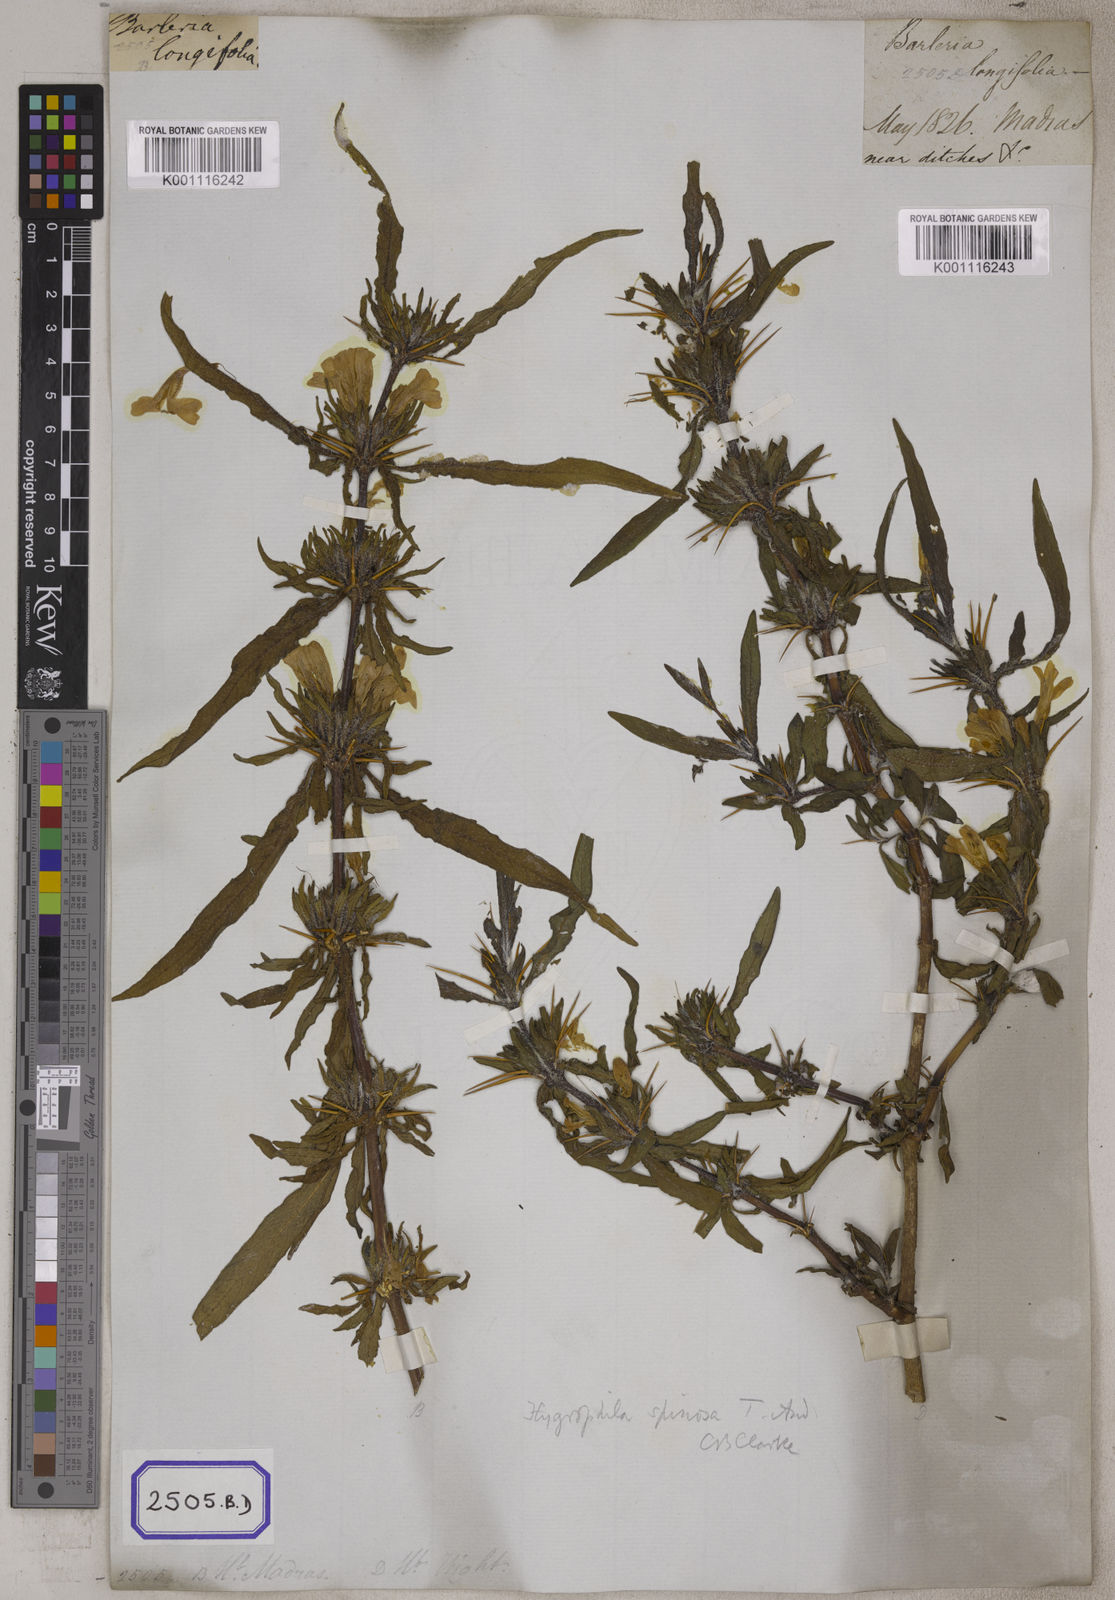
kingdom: Plantae
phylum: Tracheophyta
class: Magnoliopsida
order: Lamiales
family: Acanthaceae
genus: Barleria
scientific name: Barleria longiflora
